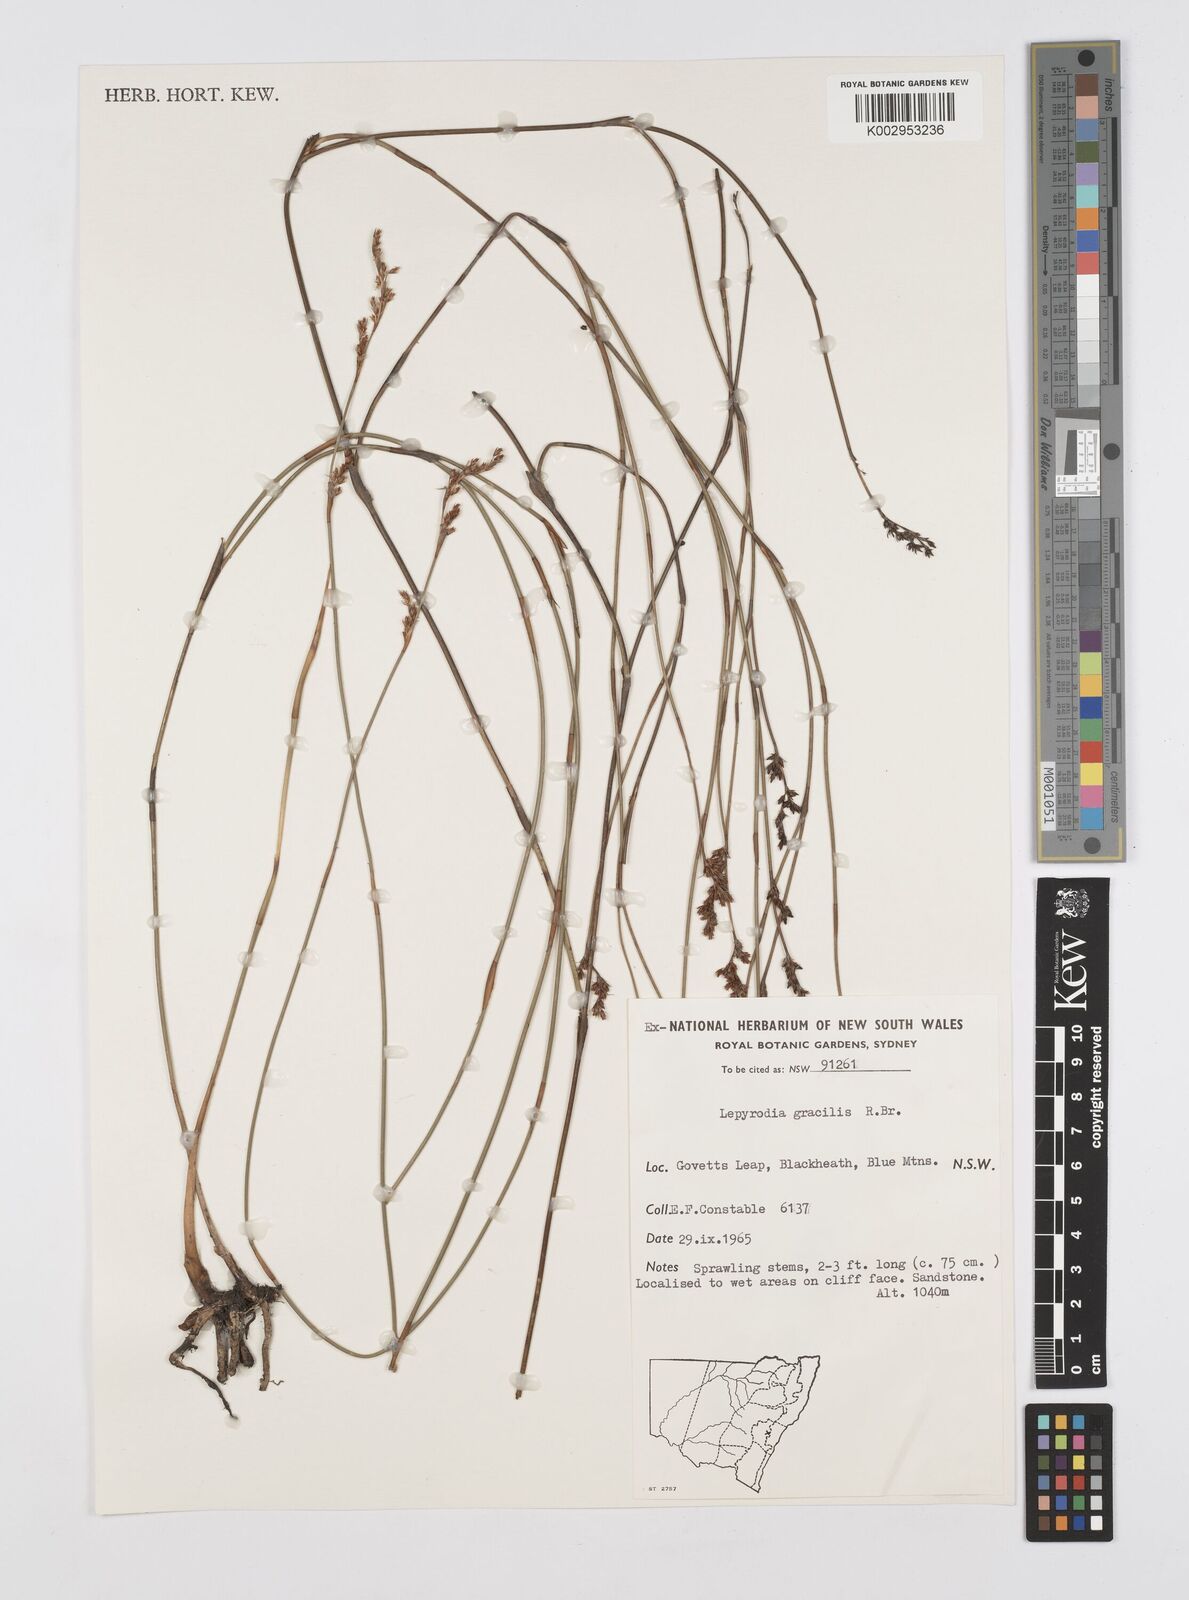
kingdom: Plantae
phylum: Tracheophyta
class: Liliopsida
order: Poales
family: Restionaceae
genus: Sporadanthus
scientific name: Sporadanthus gracilis
